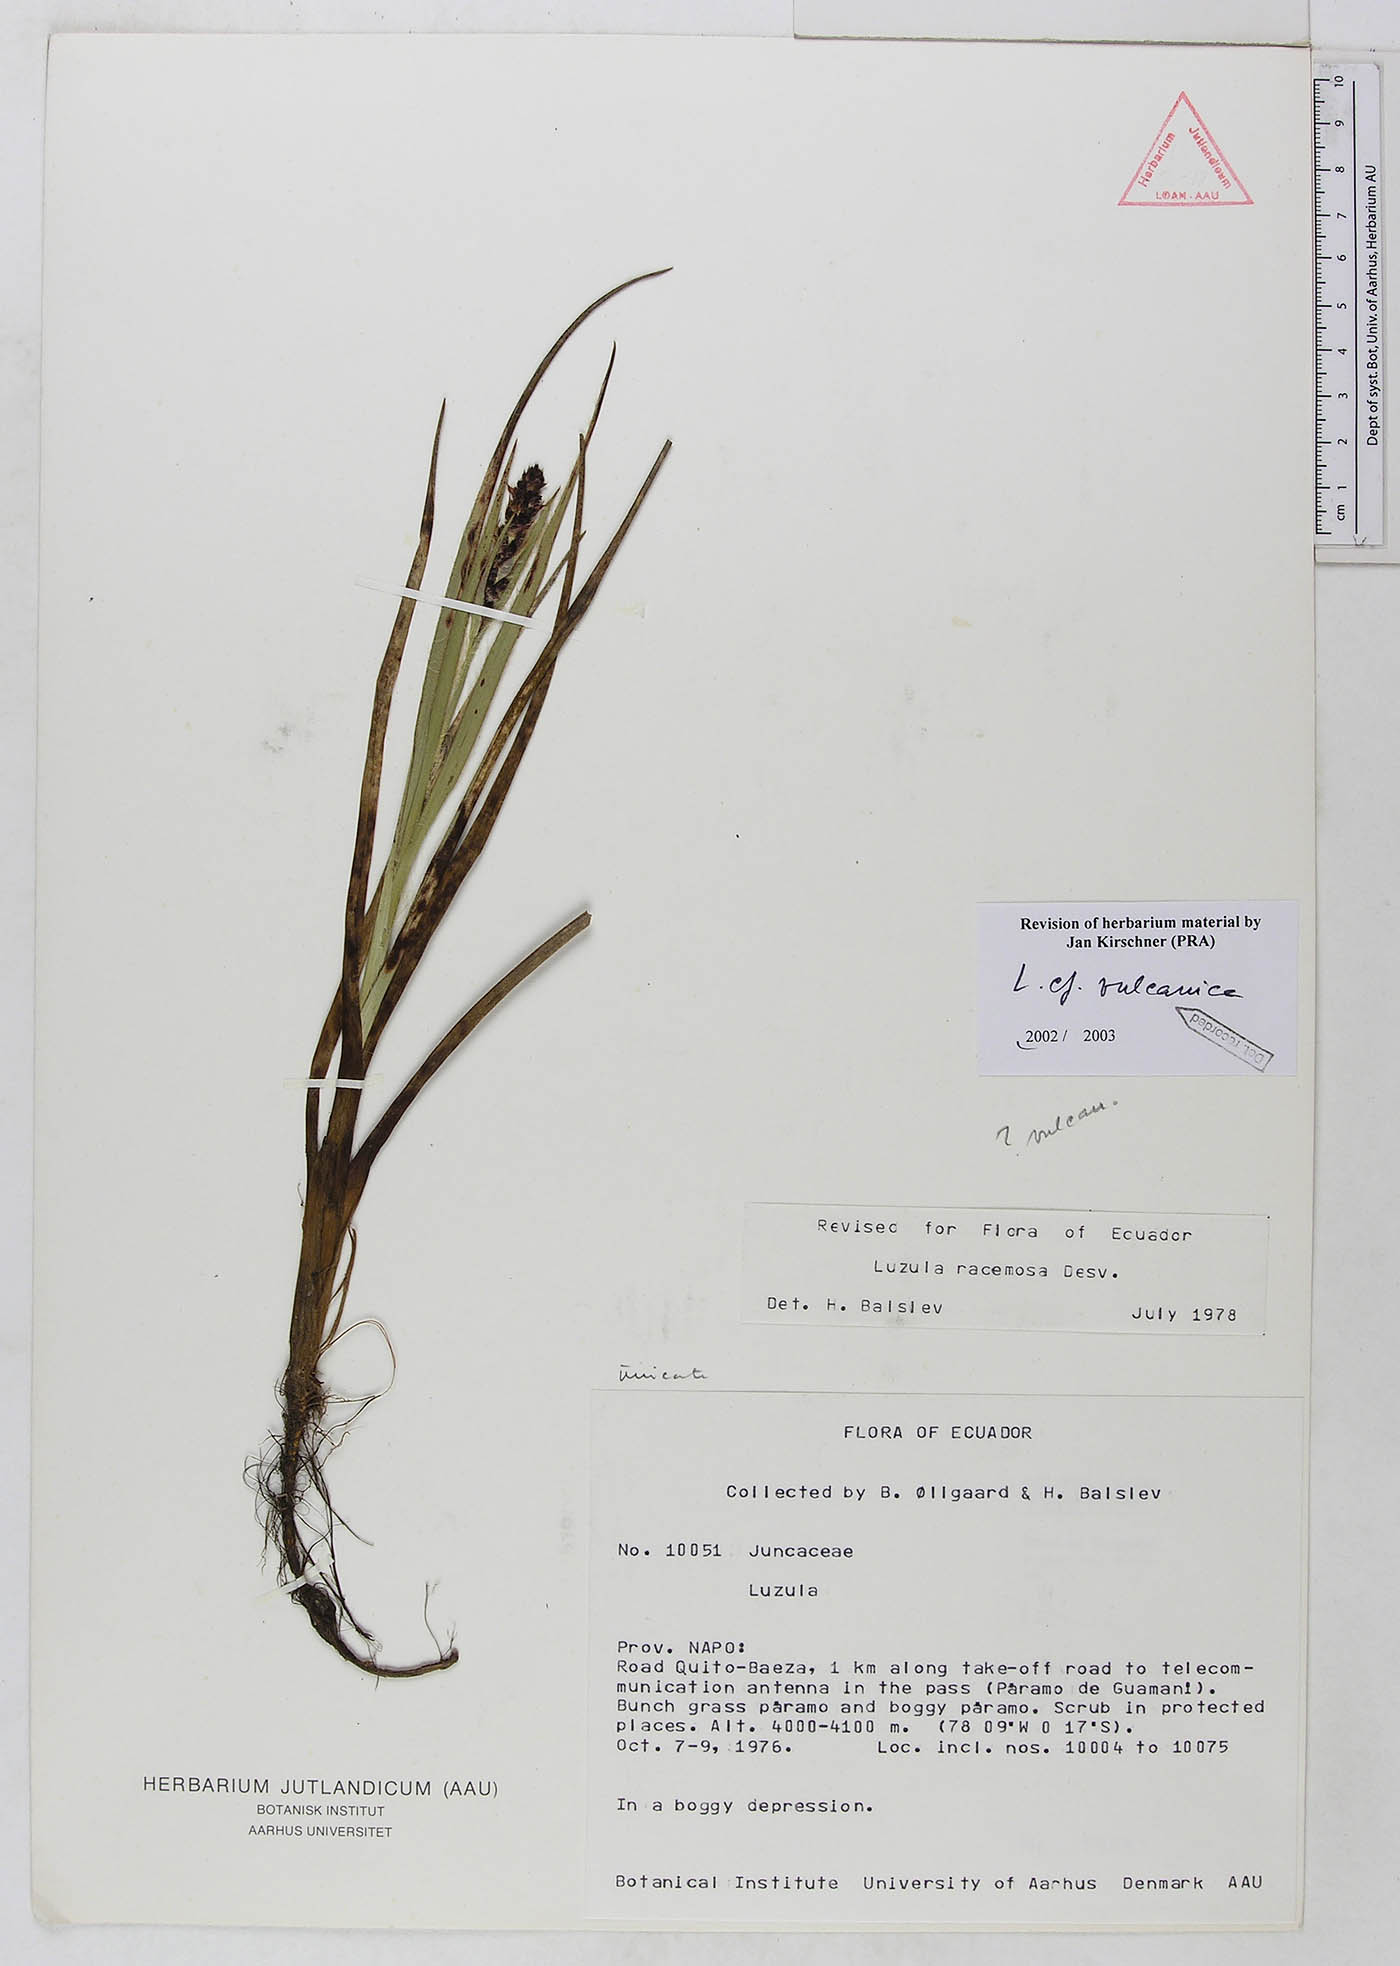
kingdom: Plantae
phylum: Tracheophyta
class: Liliopsida
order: Poales
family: Juncaceae
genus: Luzula
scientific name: Luzula vulcanica
